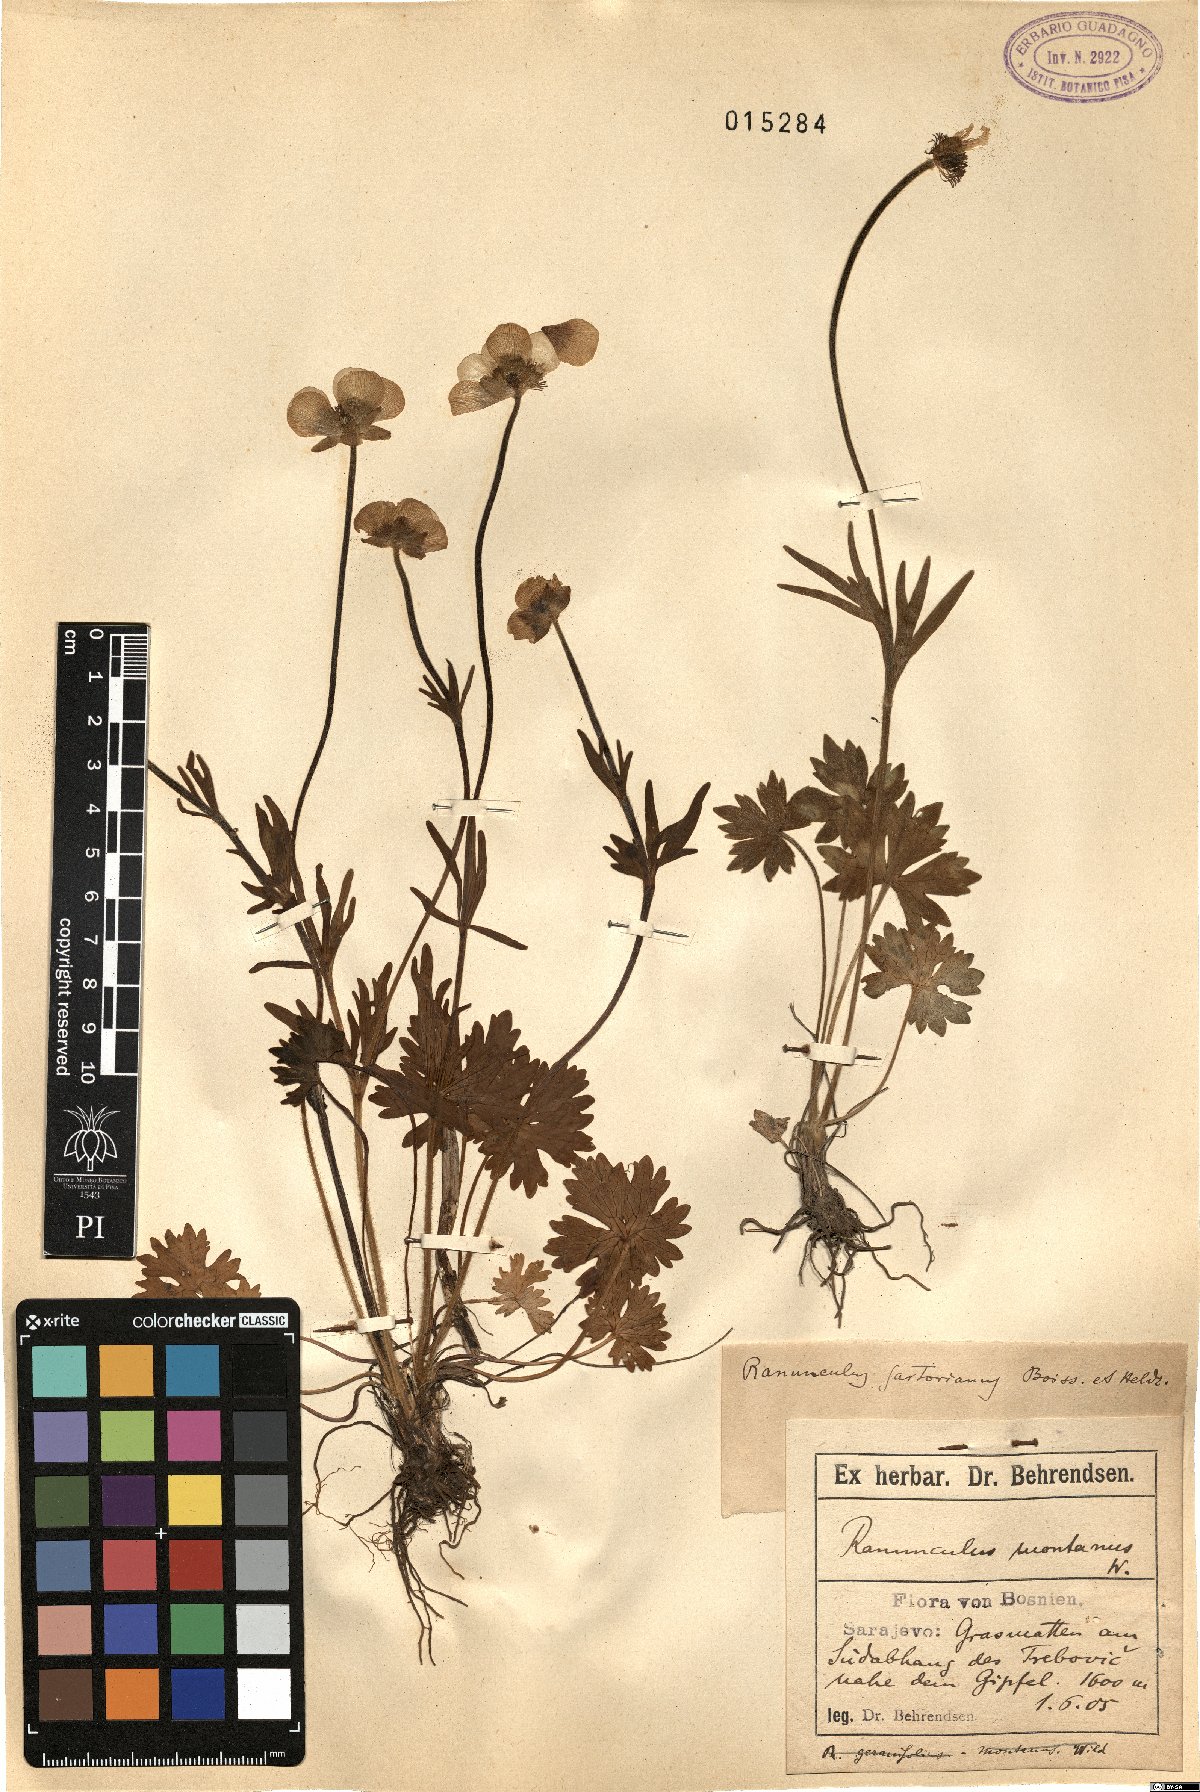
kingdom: Plantae
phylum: Tracheophyta
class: Magnoliopsida
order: Ranunculales
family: Ranunculaceae
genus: Ranunculus
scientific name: Ranunculus sartorianus
